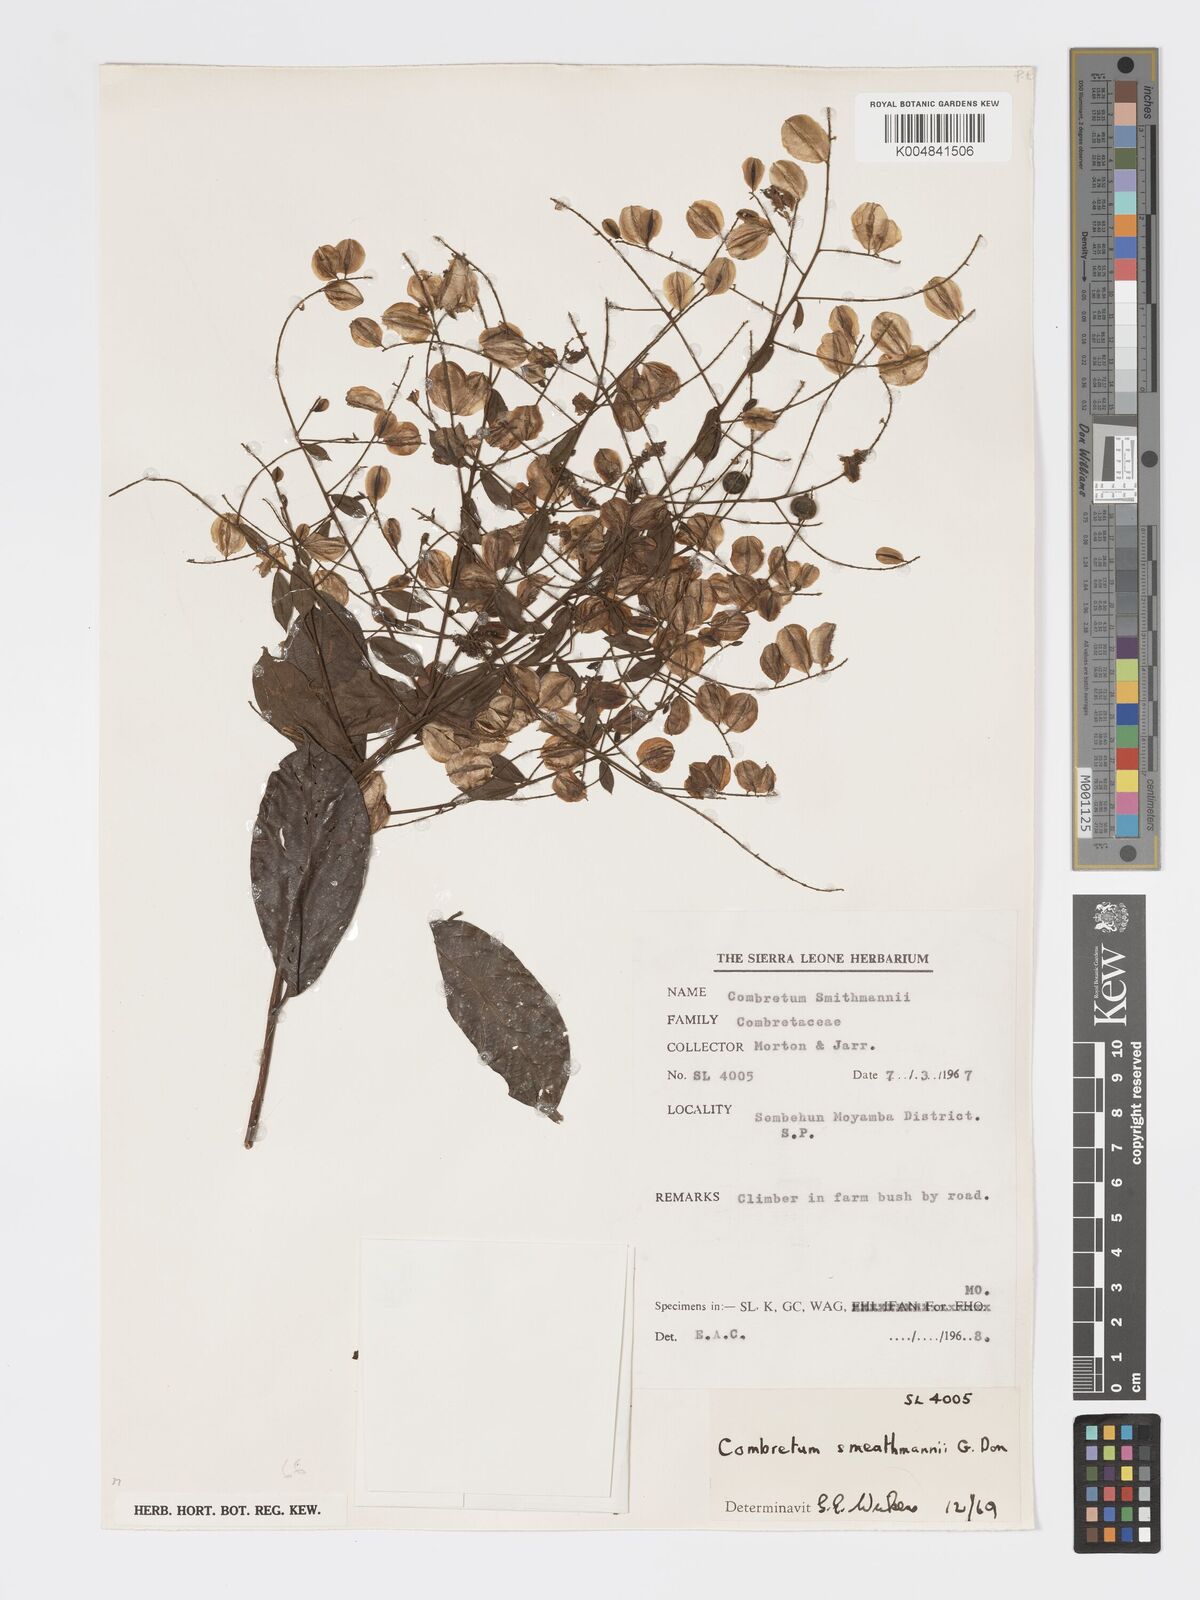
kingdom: Plantae
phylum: Tracheophyta
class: Magnoliopsida
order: Myrtales
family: Combretaceae
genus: Combretum
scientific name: Combretum mucronatum
